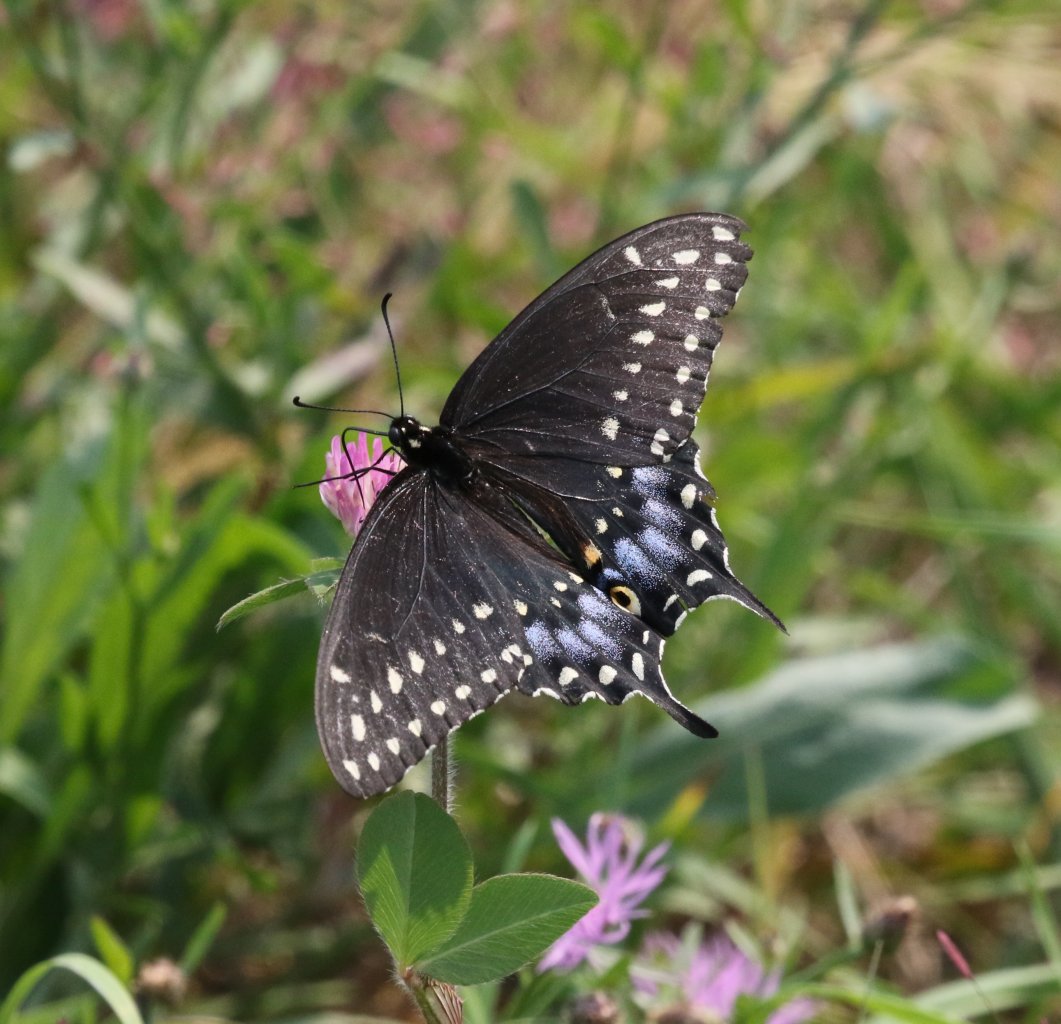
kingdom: Animalia
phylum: Arthropoda
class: Insecta
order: Lepidoptera
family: Papilionidae
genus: Papilio
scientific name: Papilio polyxenes
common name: Black Swallowtail
